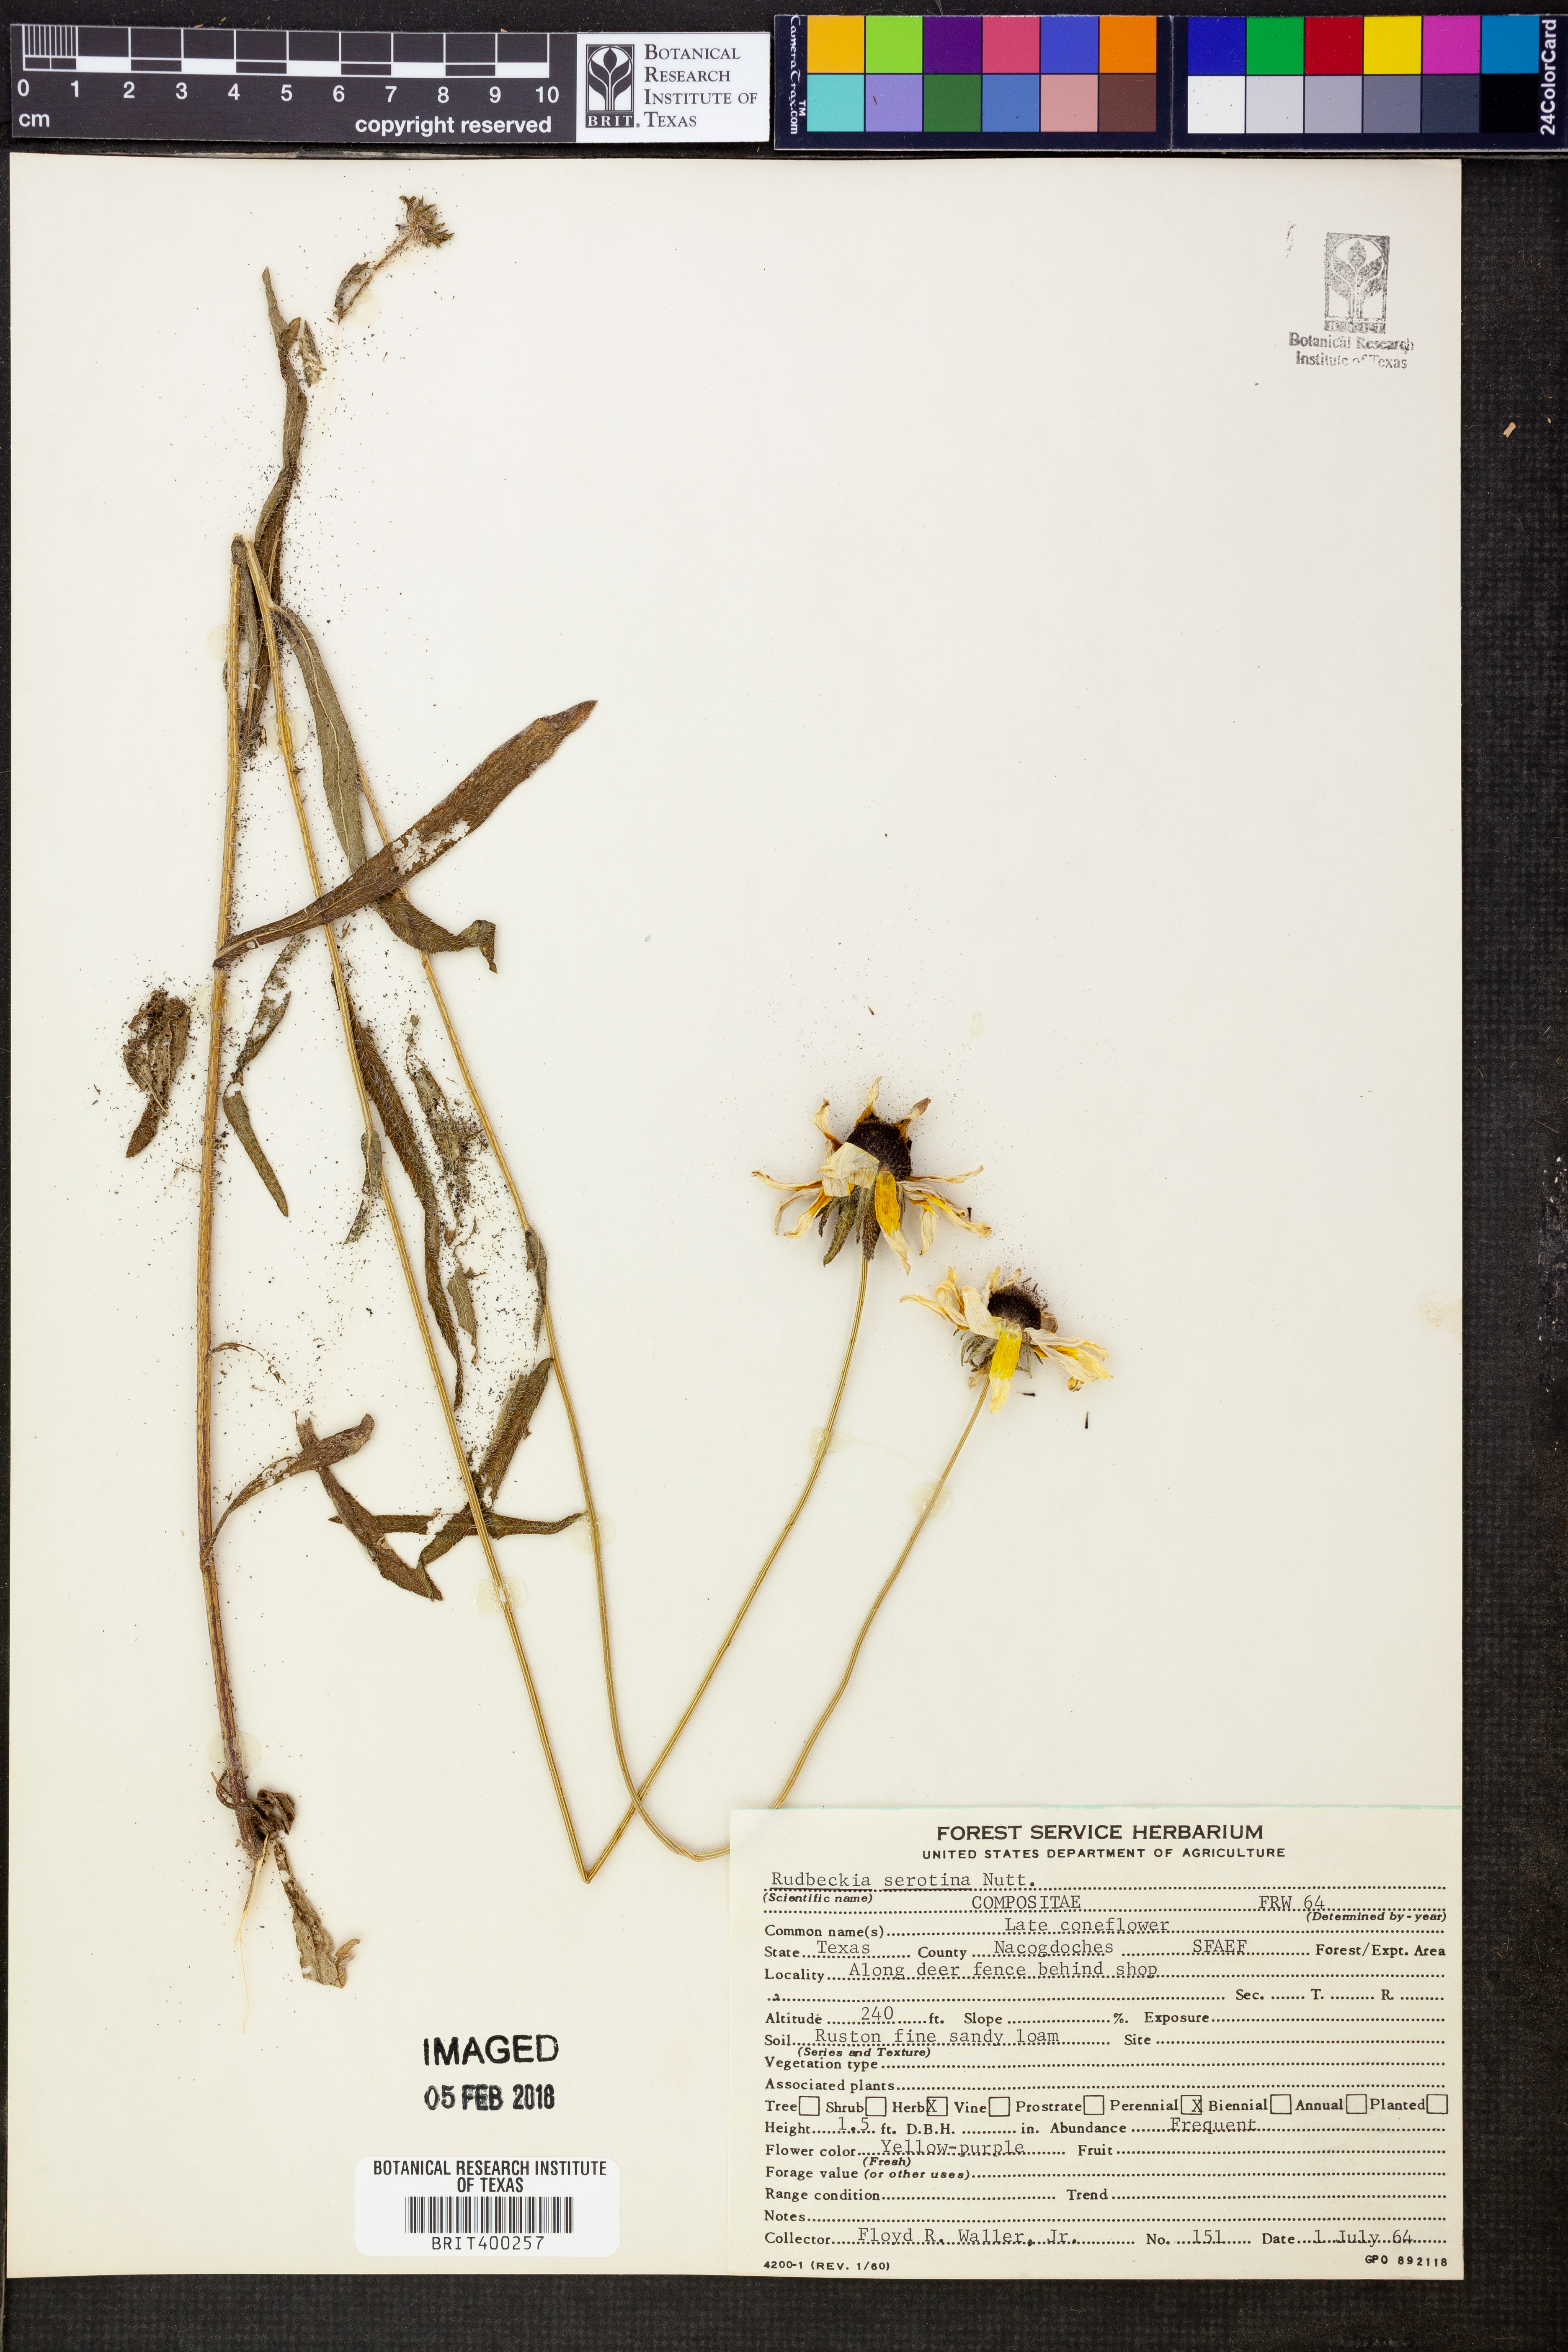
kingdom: Plantae
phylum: Tracheophyta
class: Magnoliopsida
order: Asterales
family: Asteraceae
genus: Echinacea
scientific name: Echinacea purpurea
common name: Broad-leaved purple coneflower
